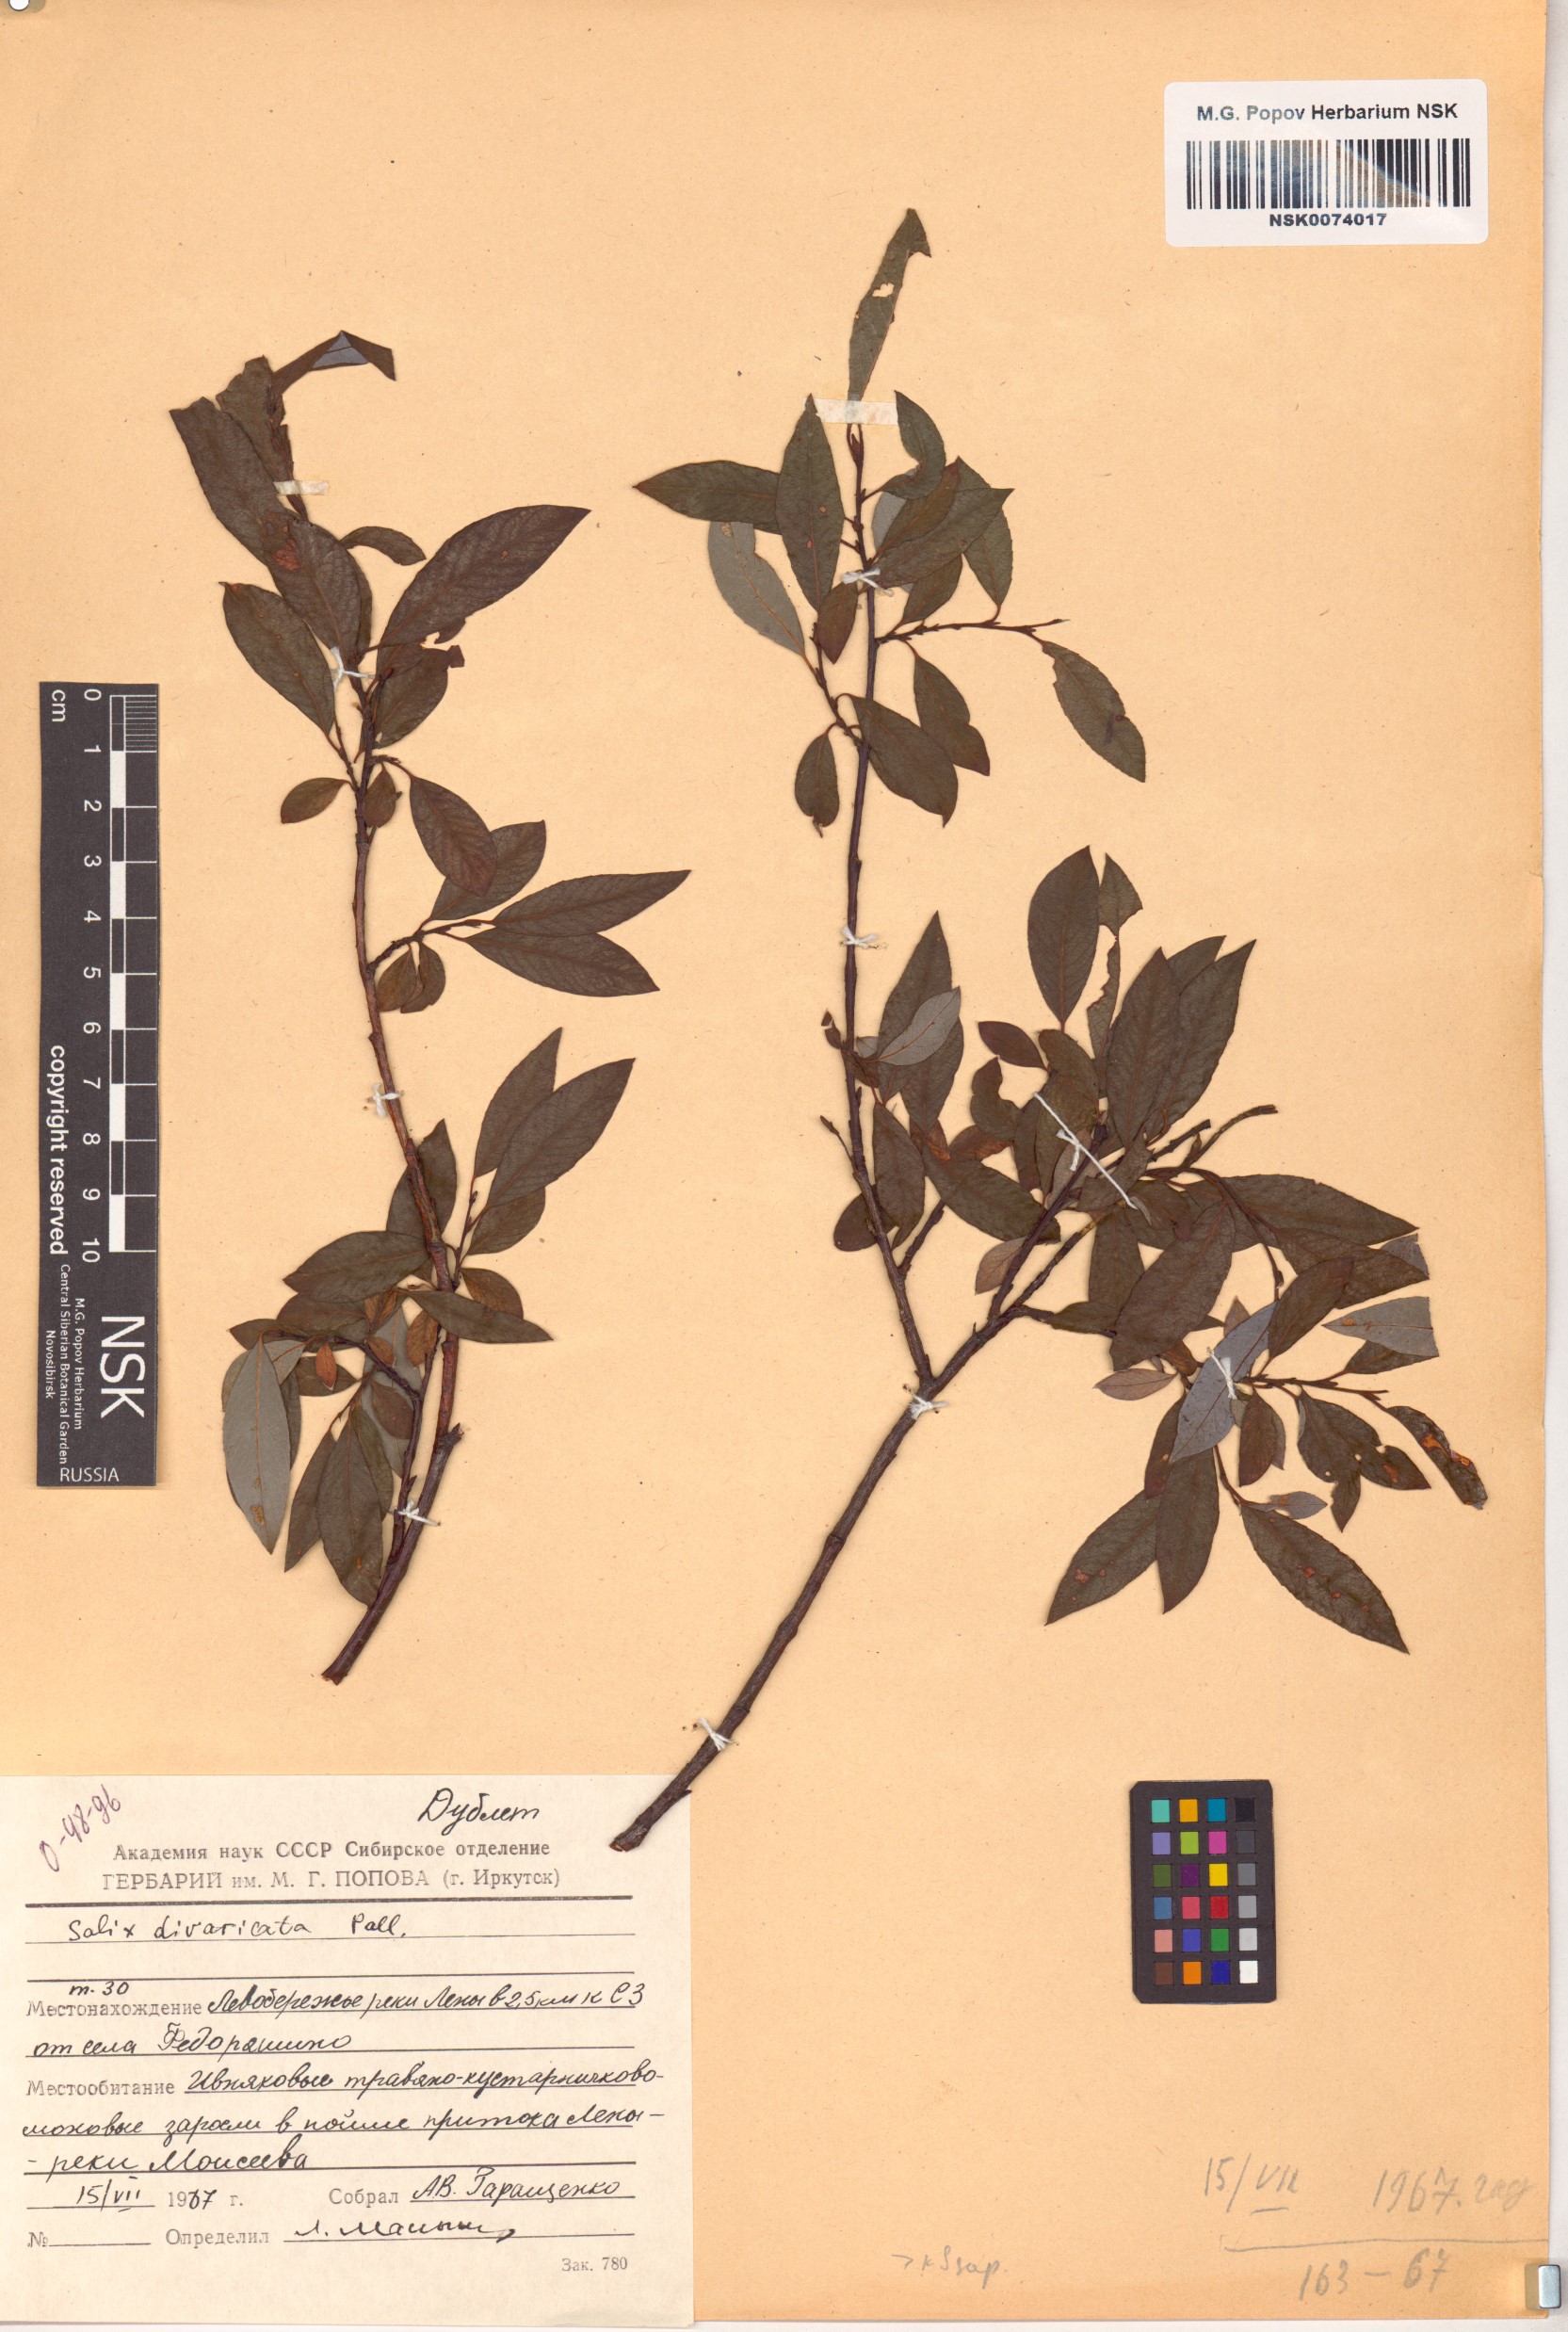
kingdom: Plantae
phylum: Tracheophyta
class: Magnoliopsida
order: Malpighiales
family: Salicaceae
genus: Salix
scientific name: Salix divaricata
